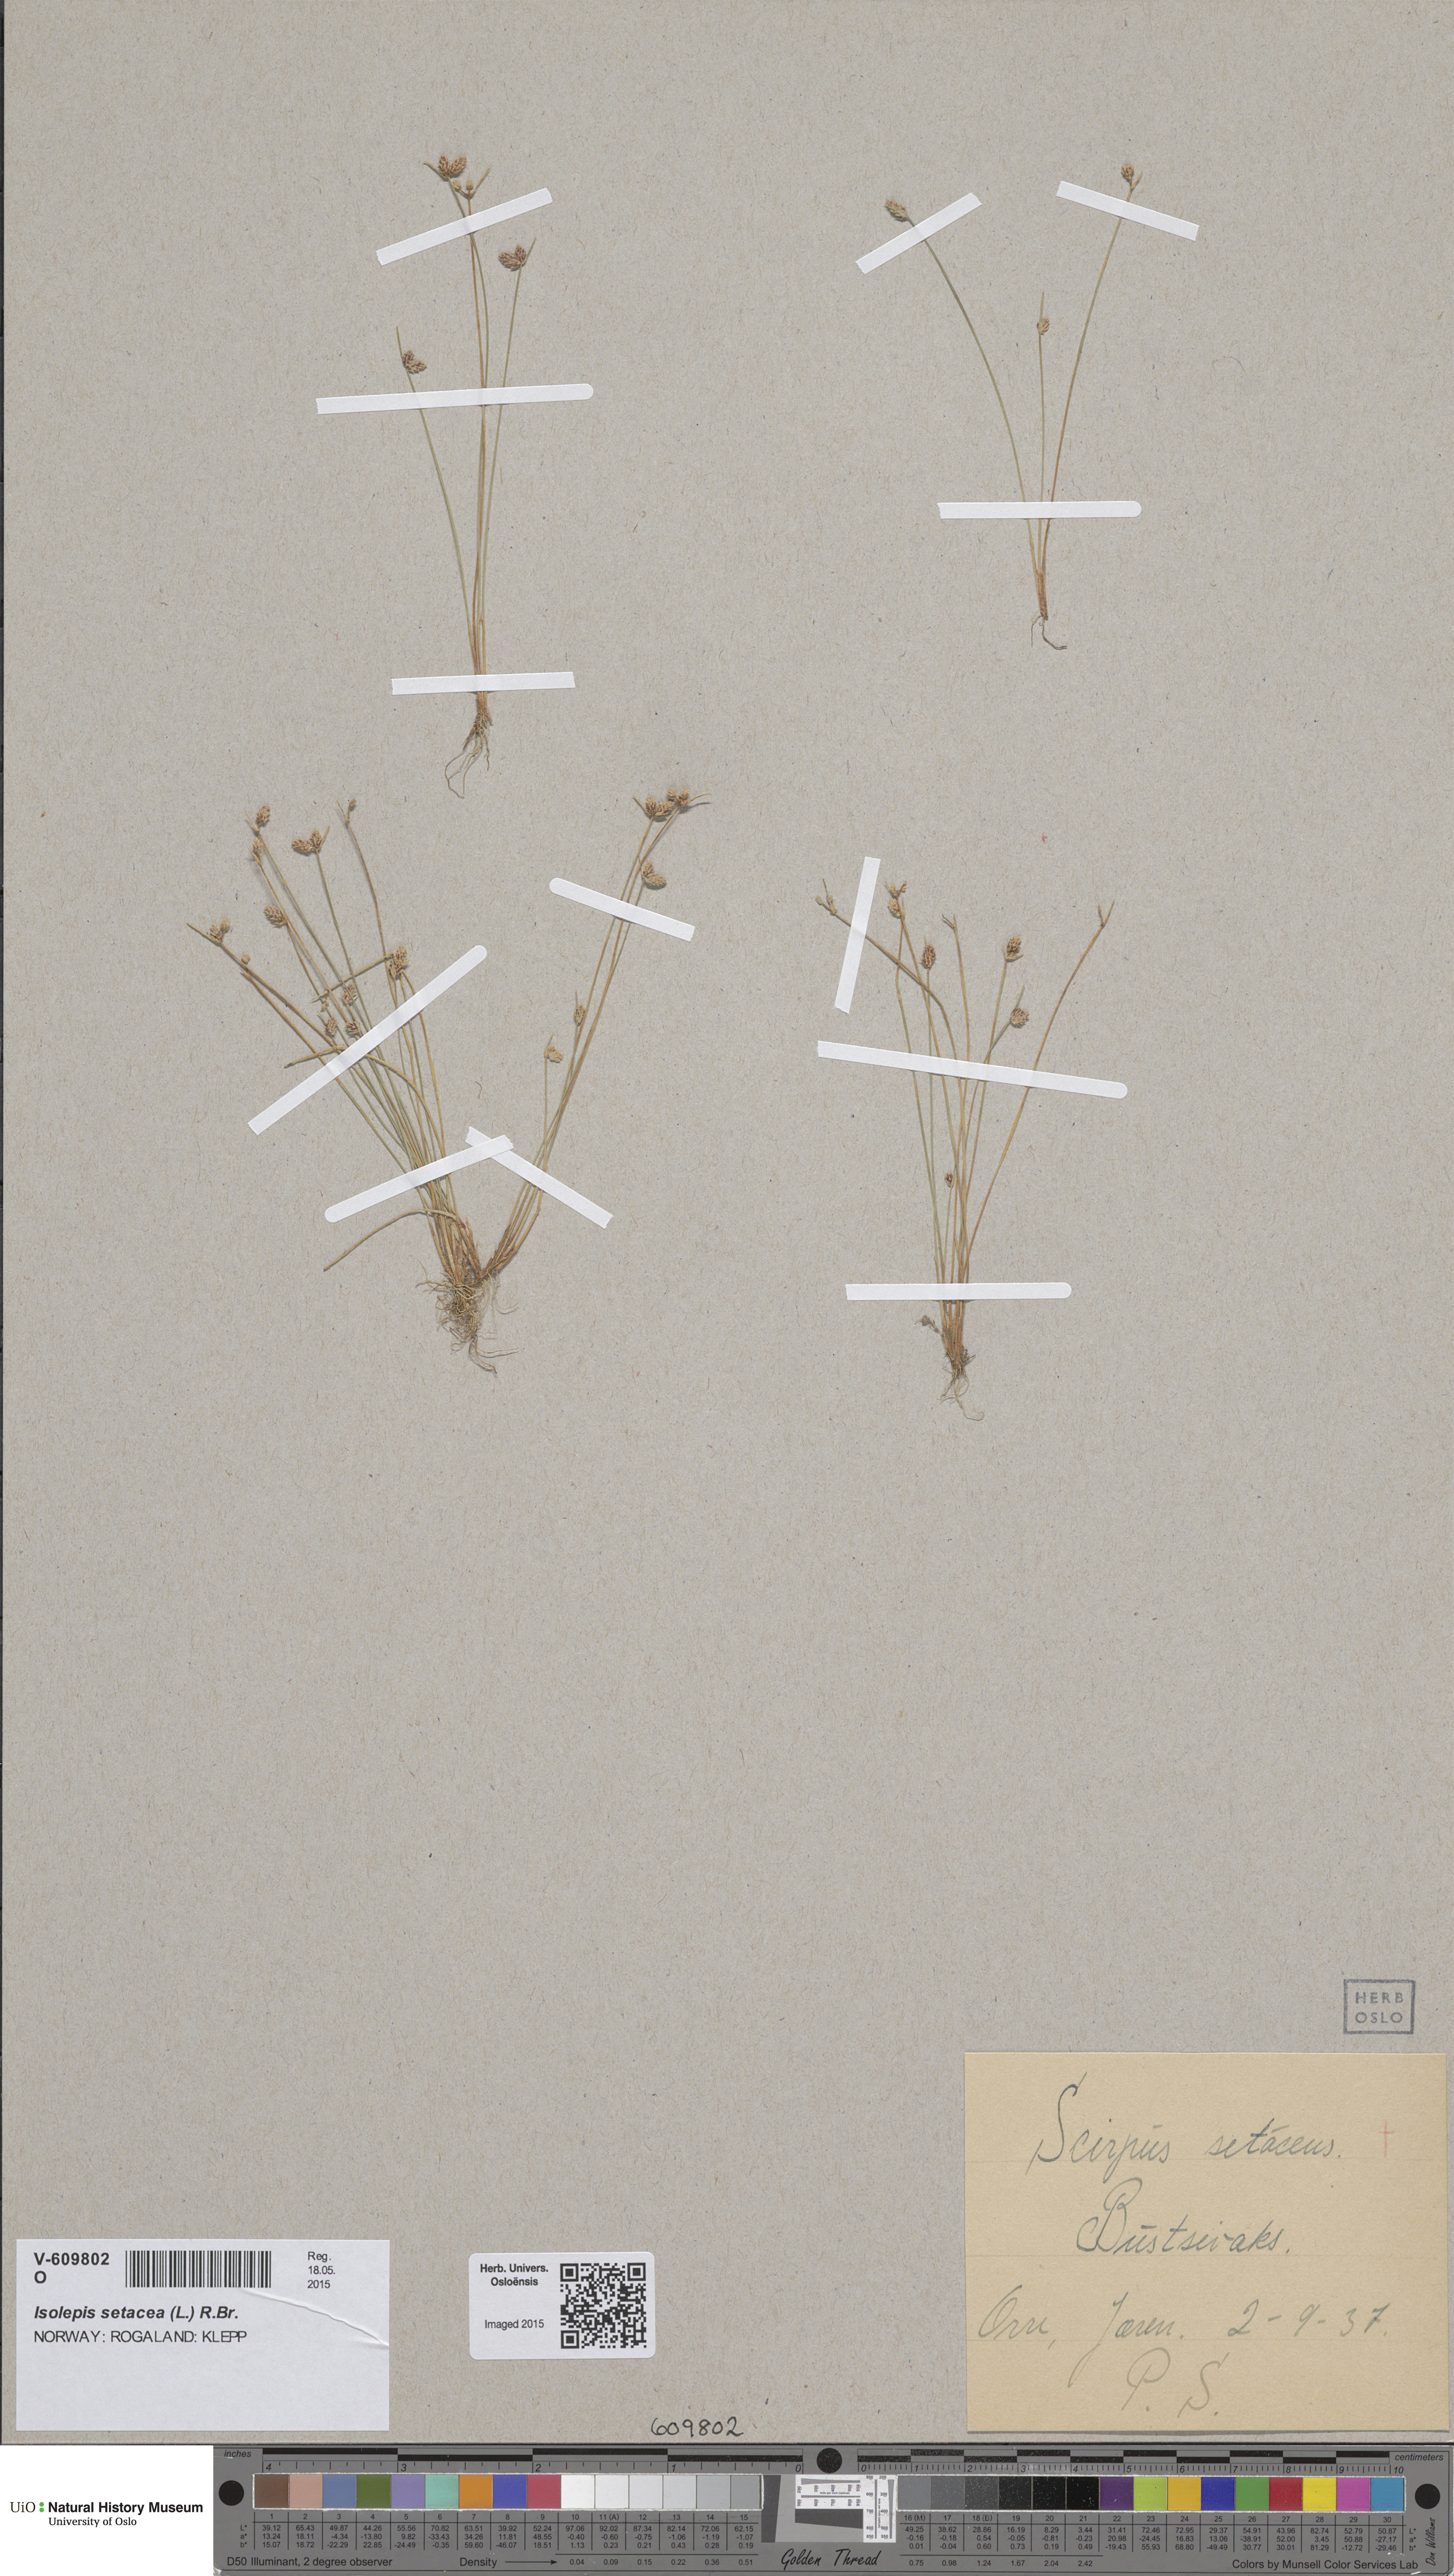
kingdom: Plantae
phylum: Tracheophyta
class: Liliopsida
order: Poales
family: Cyperaceae
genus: Isolepis
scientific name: Isolepis setacea
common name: Bristle club-rush
